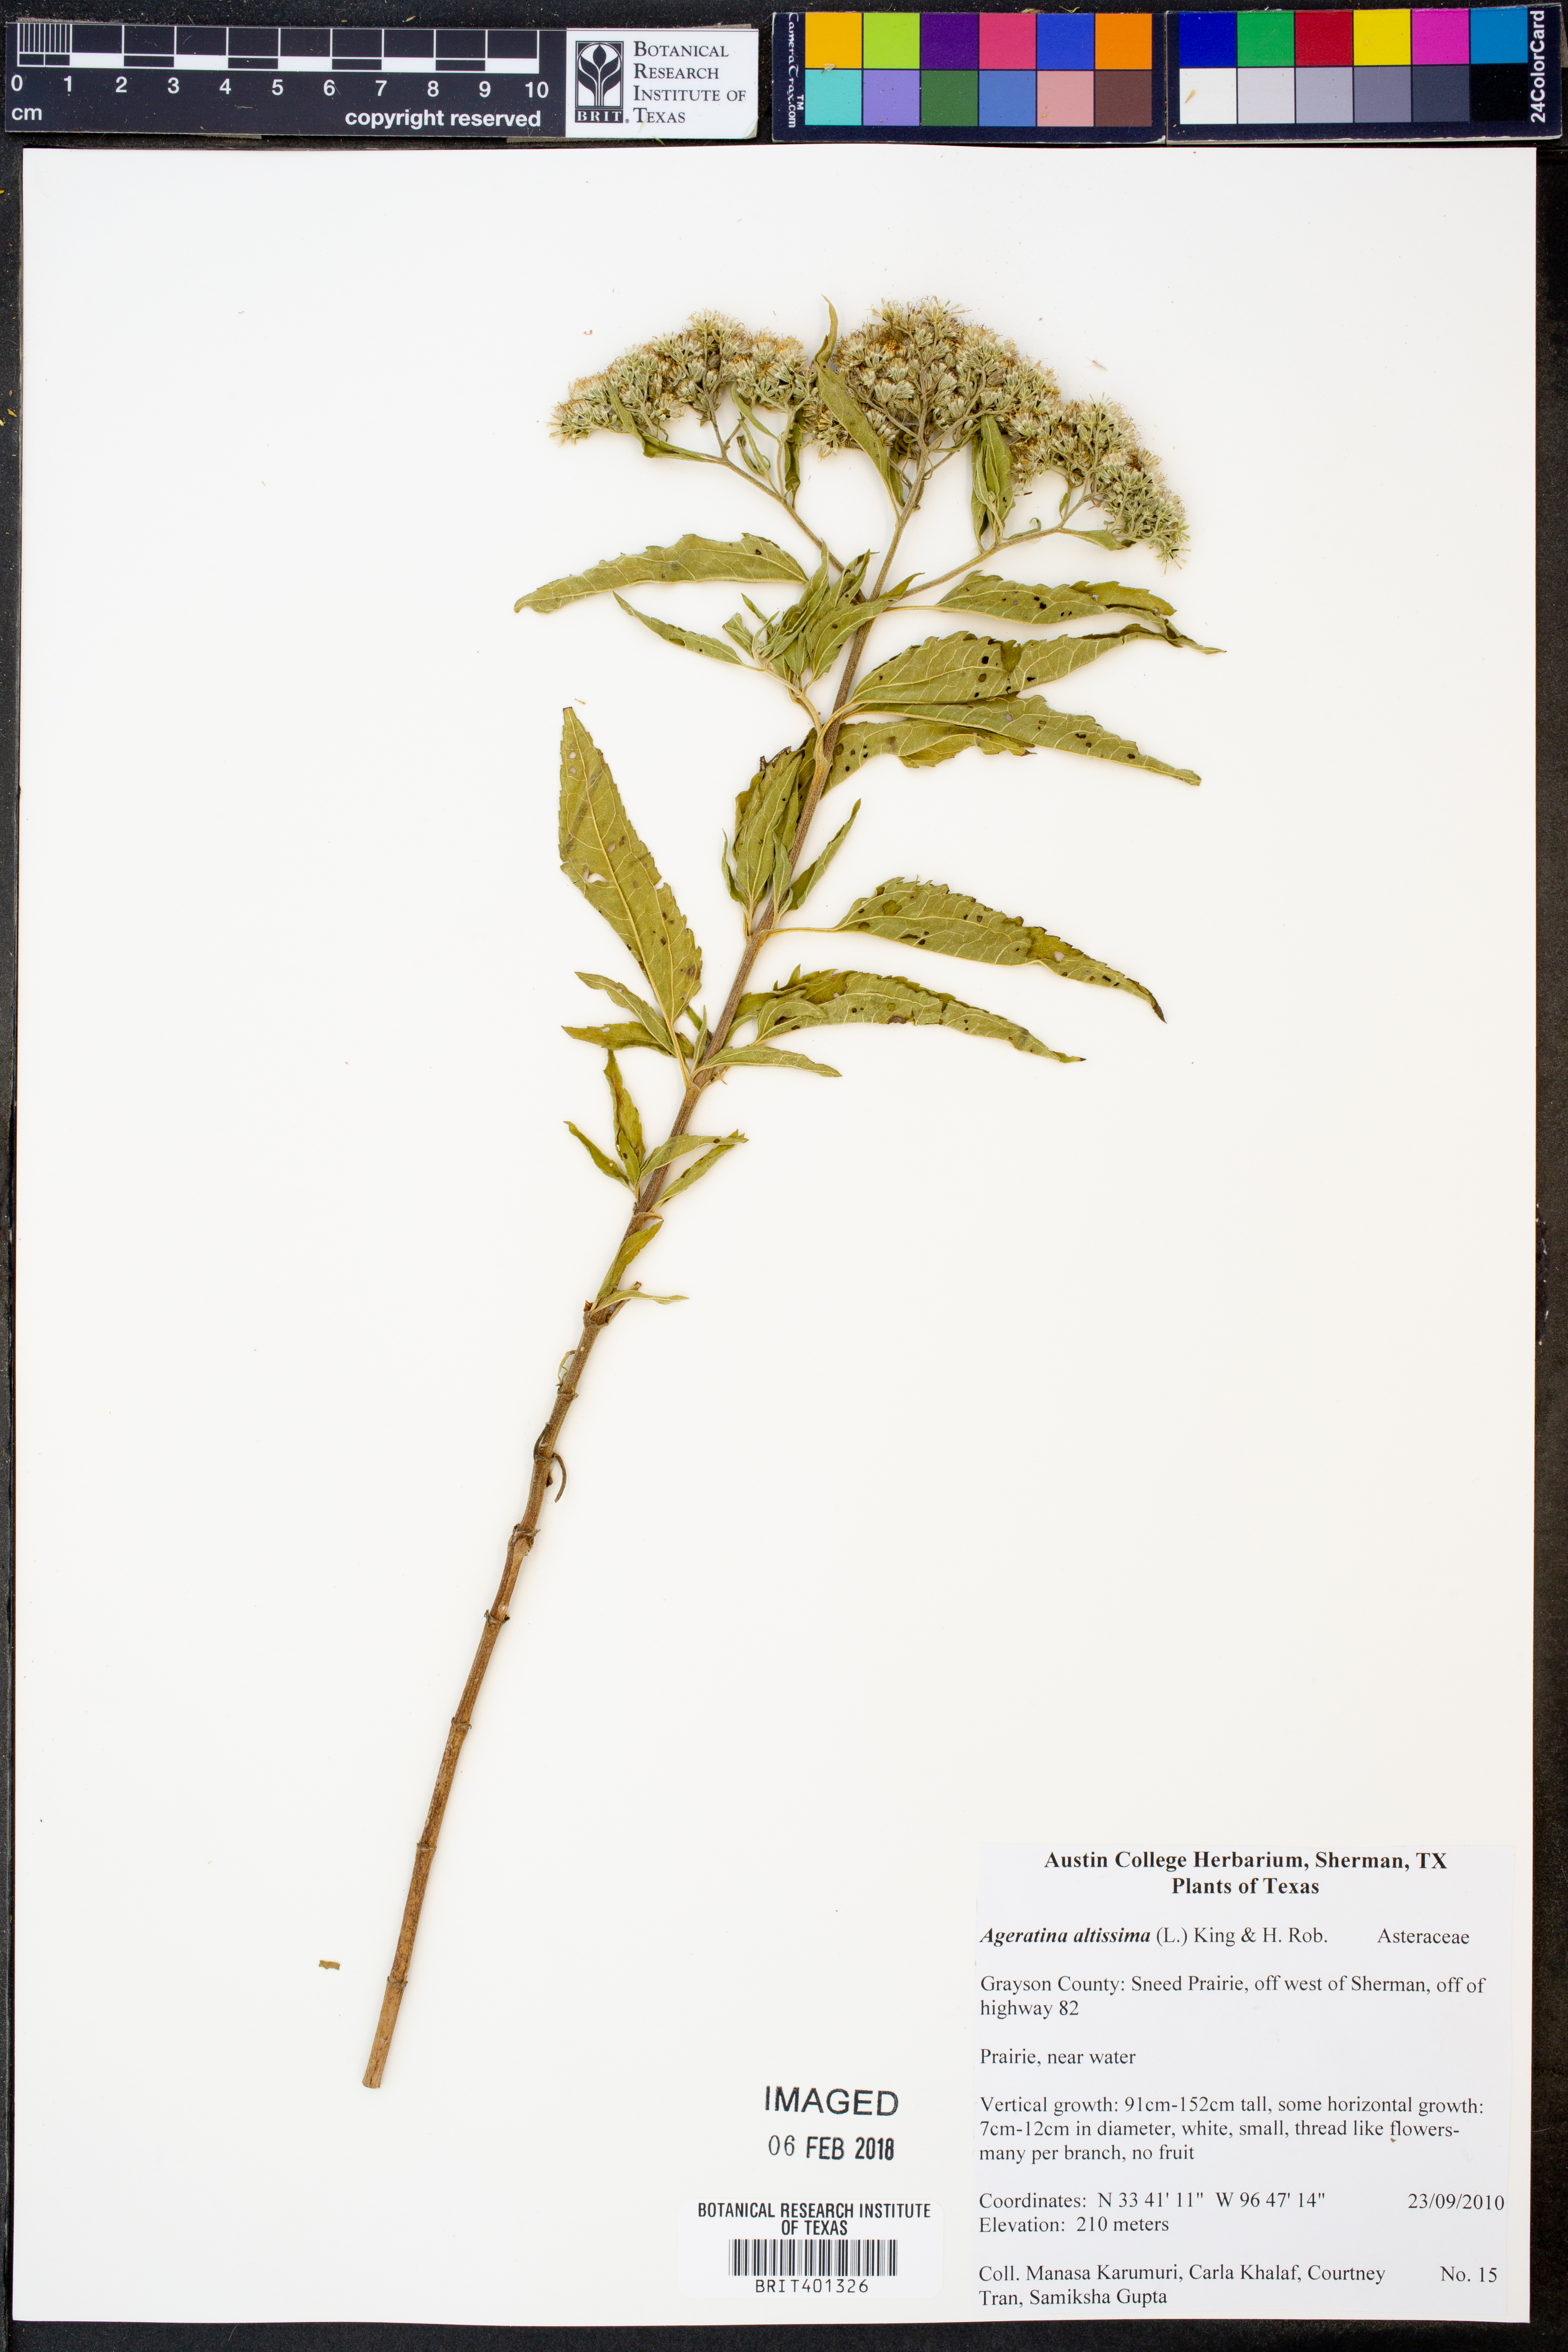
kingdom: Plantae
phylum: Tracheophyta
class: Magnoliopsida
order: Asterales
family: Asteraceae
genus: Ageratina
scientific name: Ageratina altissima
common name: White snakeroot
